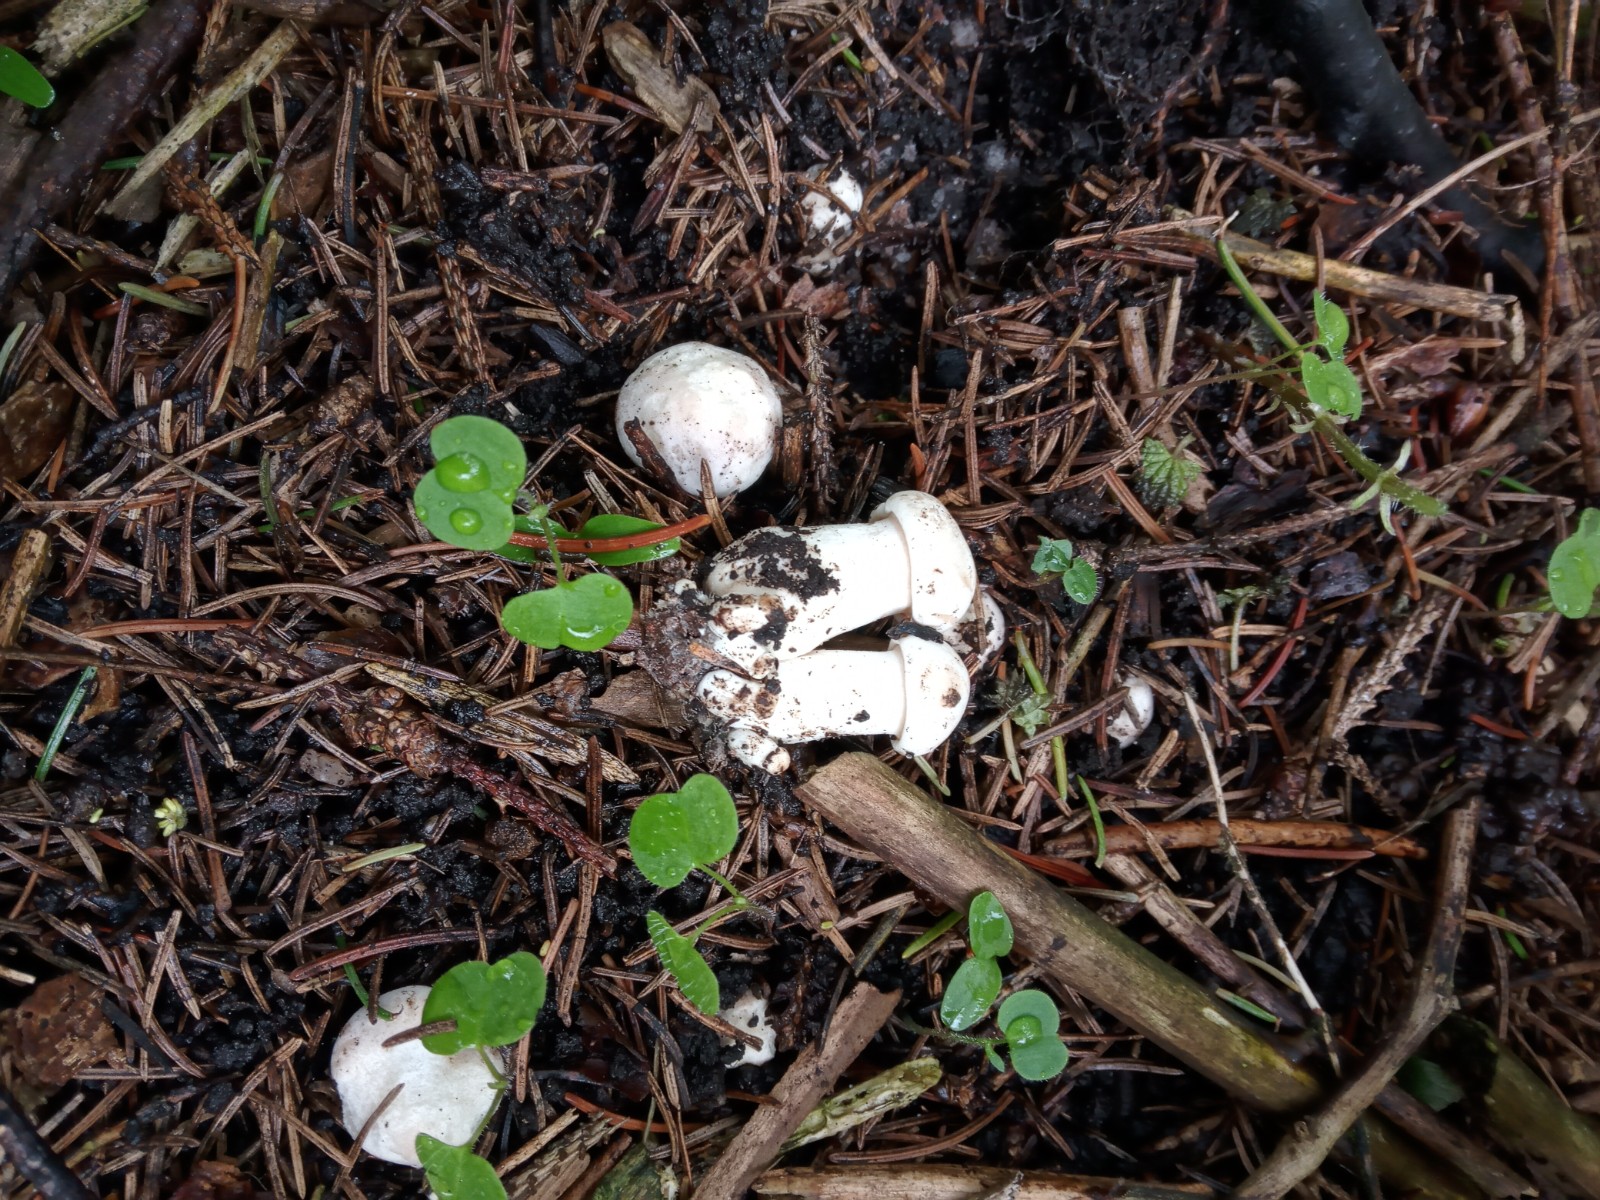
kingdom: Fungi
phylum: Basidiomycota
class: Agaricomycetes
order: Agaricales
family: Lyophyllaceae
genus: Calocybe
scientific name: Calocybe gambosa
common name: vårmusseron
